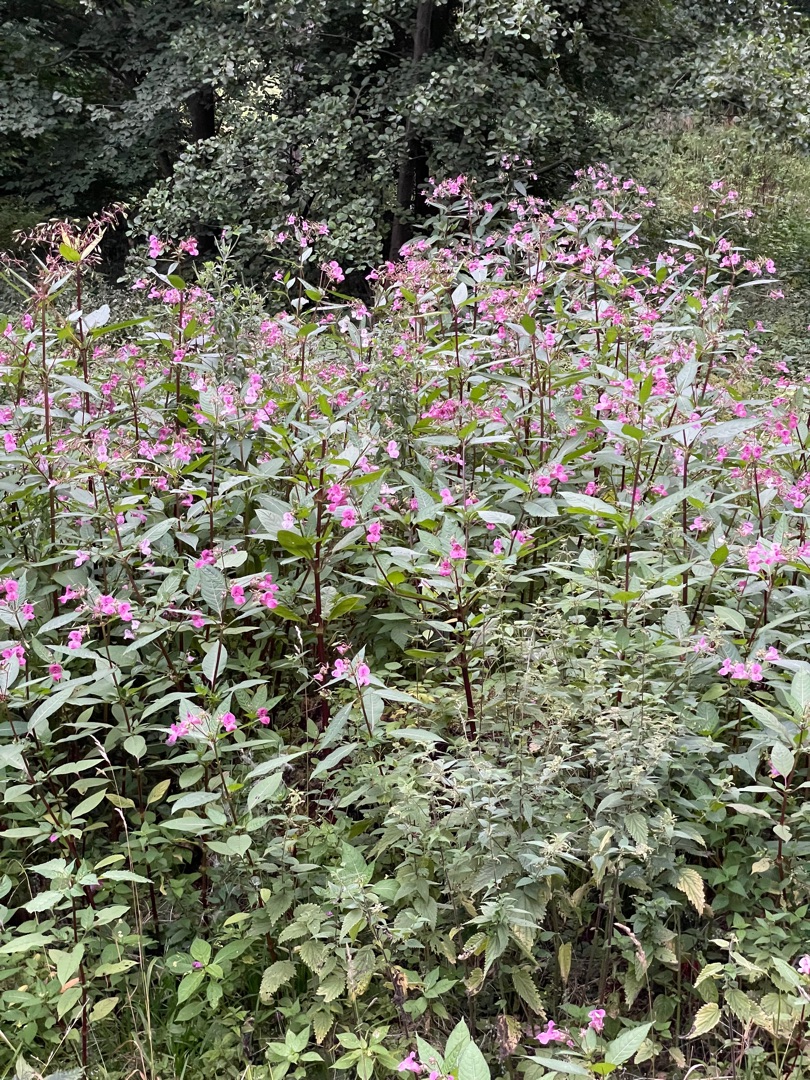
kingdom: Plantae
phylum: Tracheophyta
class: Magnoliopsida
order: Ericales
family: Balsaminaceae
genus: Impatiens
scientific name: Impatiens glandulifera
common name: Kæmpe-balsamin
